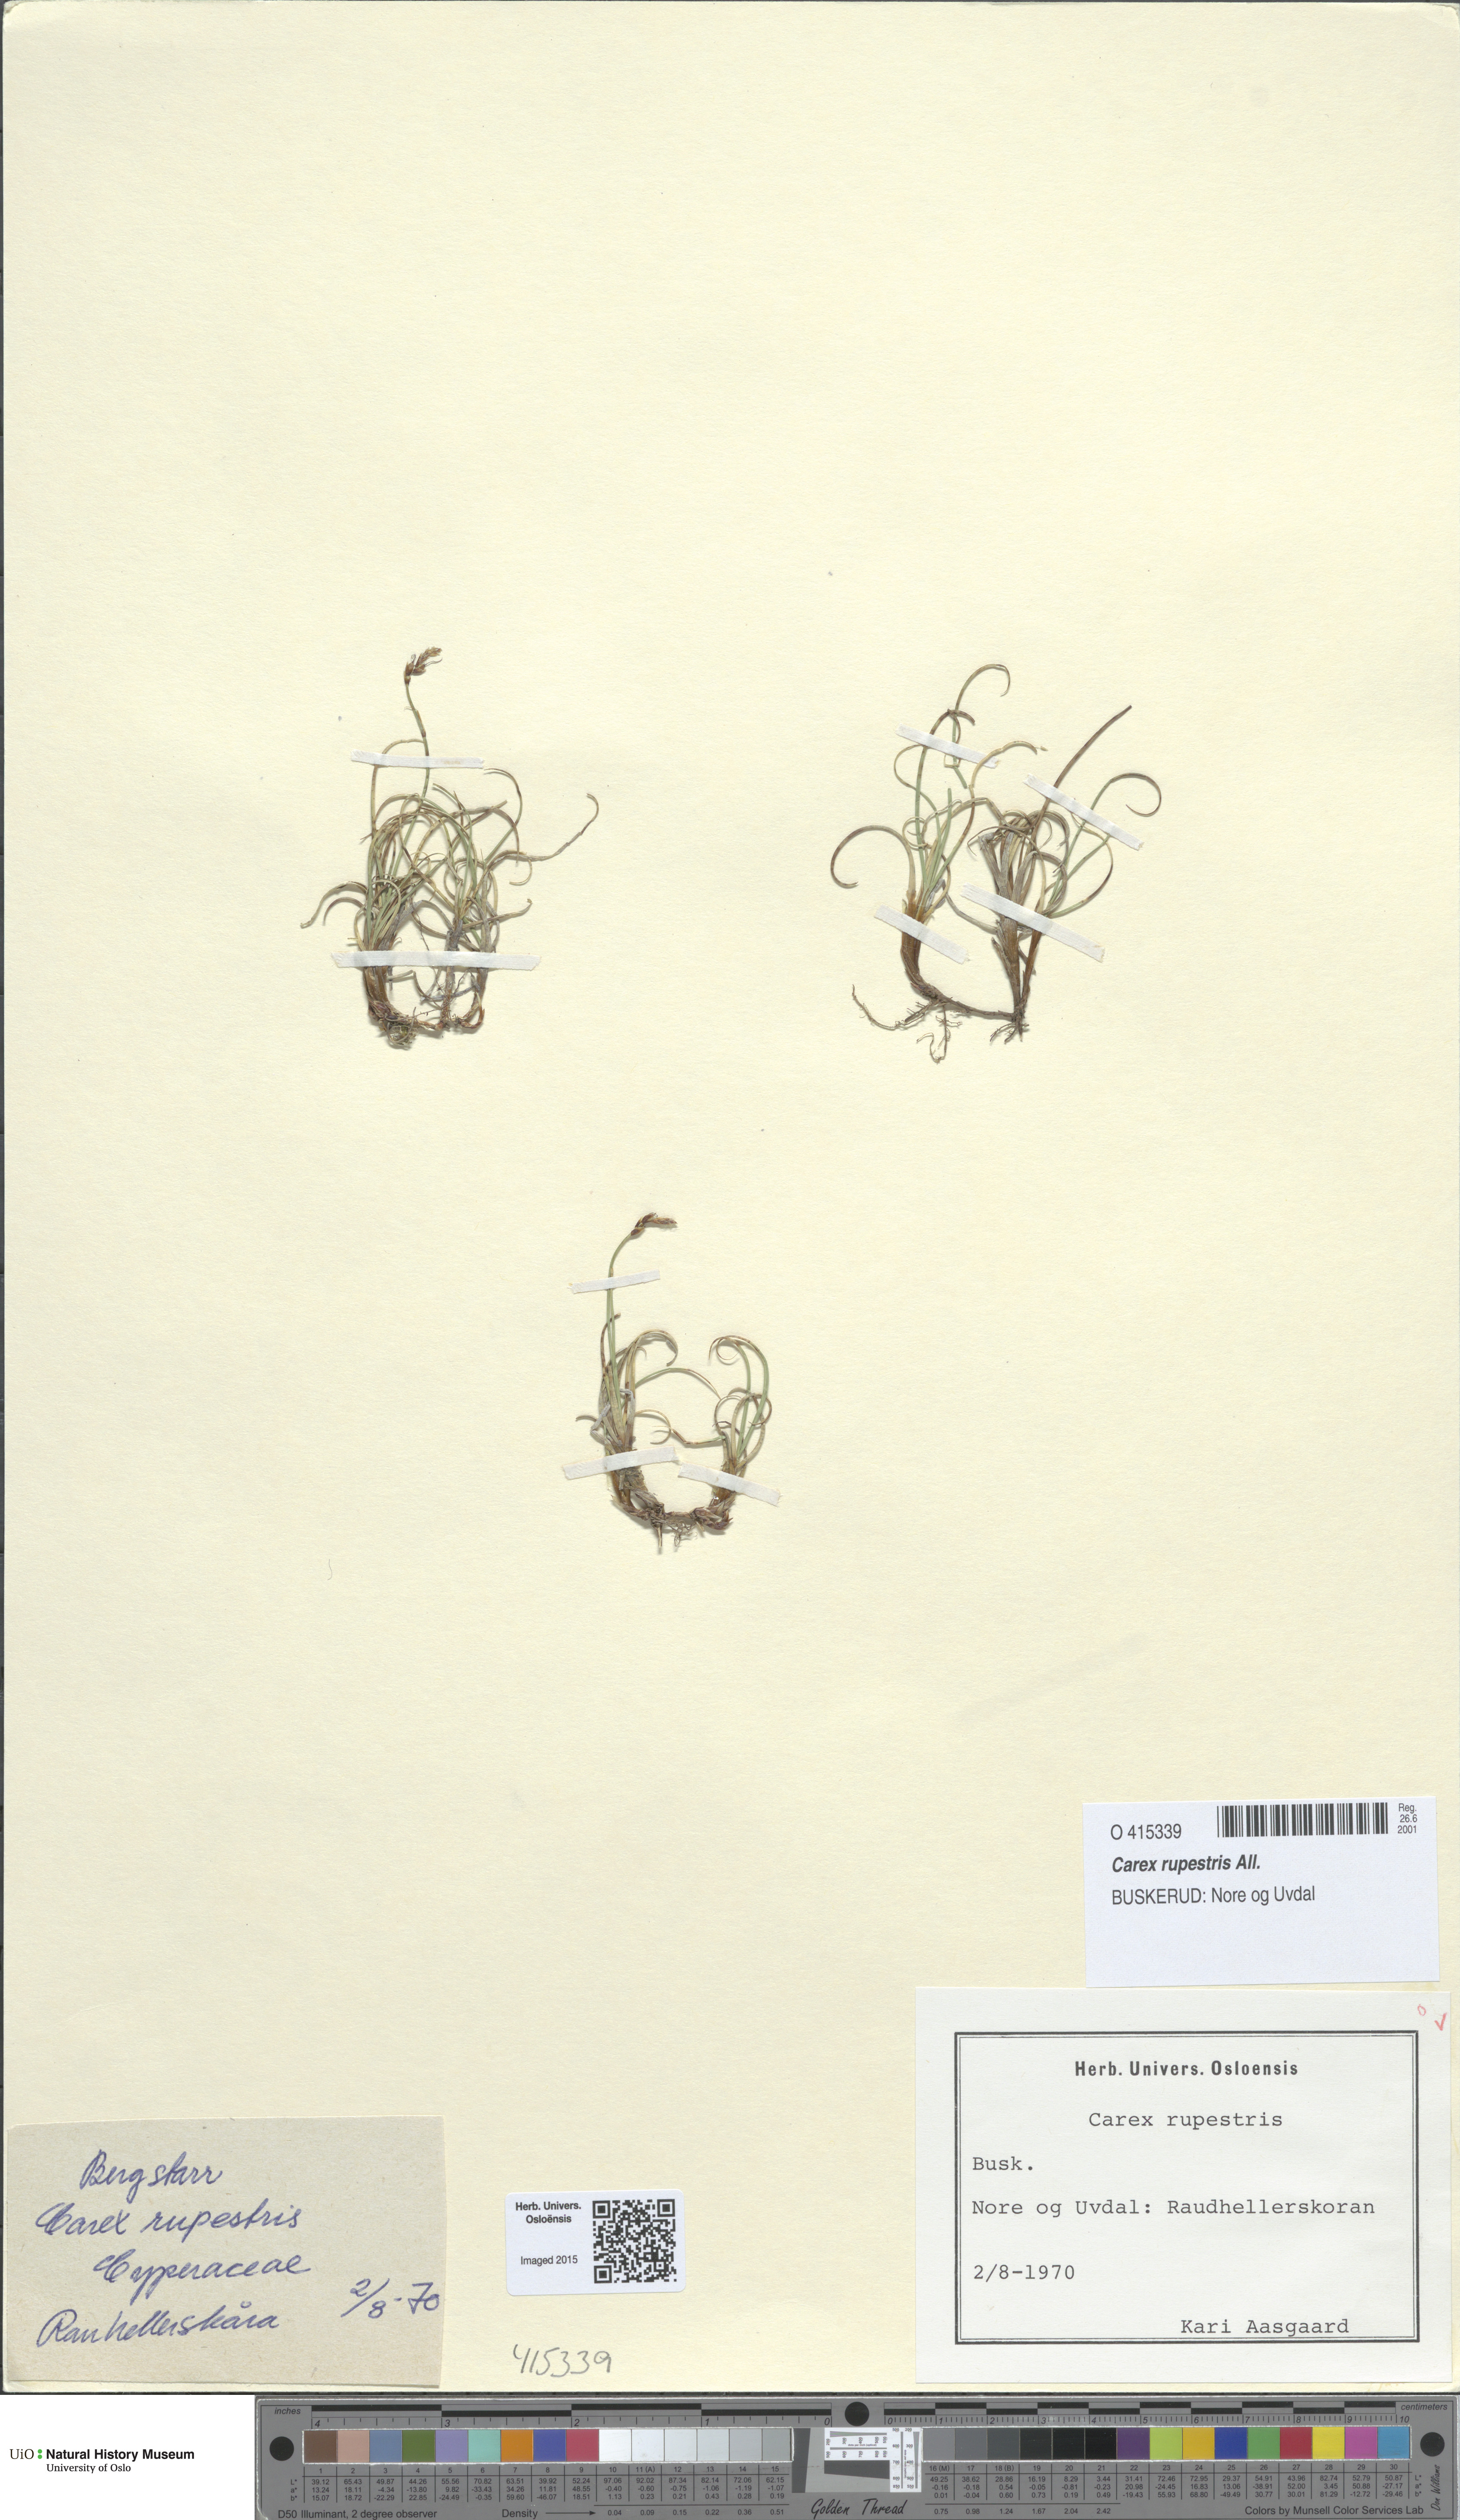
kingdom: Plantae
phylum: Tracheophyta
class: Liliopsida
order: Poales
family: Cyperaceae
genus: Carex
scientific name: Carex rupestris
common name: Rock sedge
